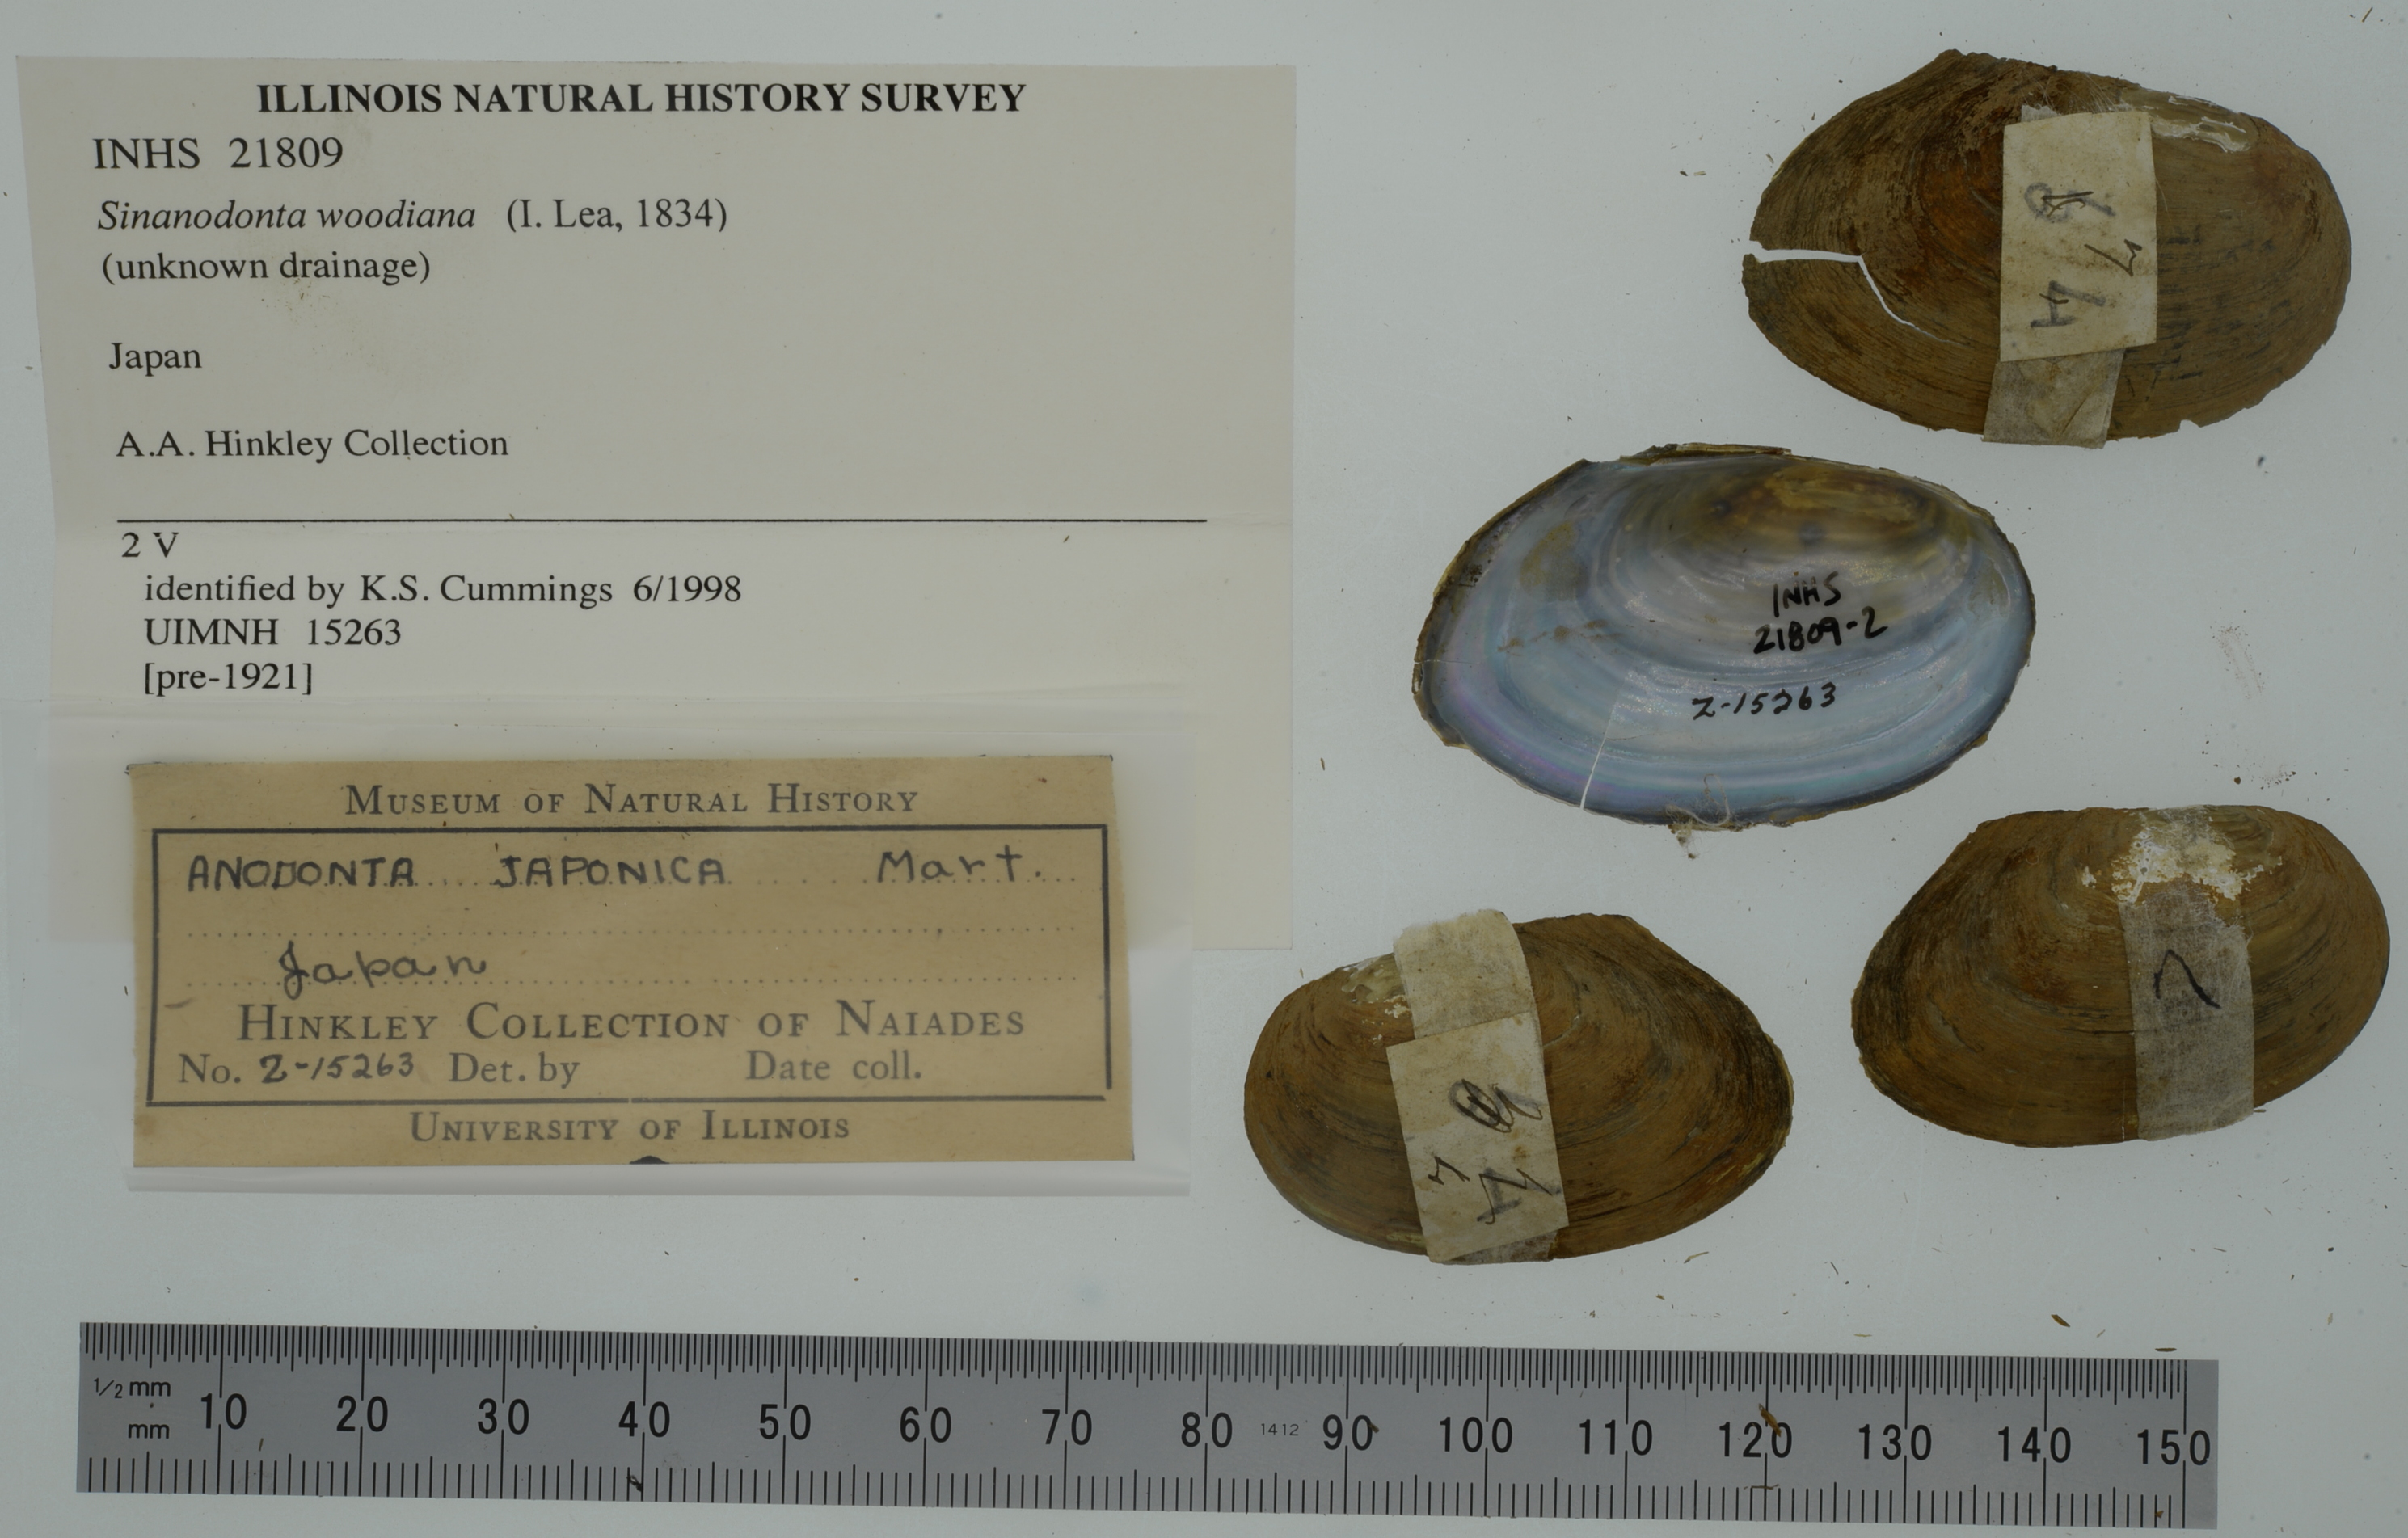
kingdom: Animalia
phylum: Mollusca
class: Bivalvia
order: Unionida
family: Unionidae
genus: Sinanodonta
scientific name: Sinanodonta woodiana
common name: Chinese pond mussel
